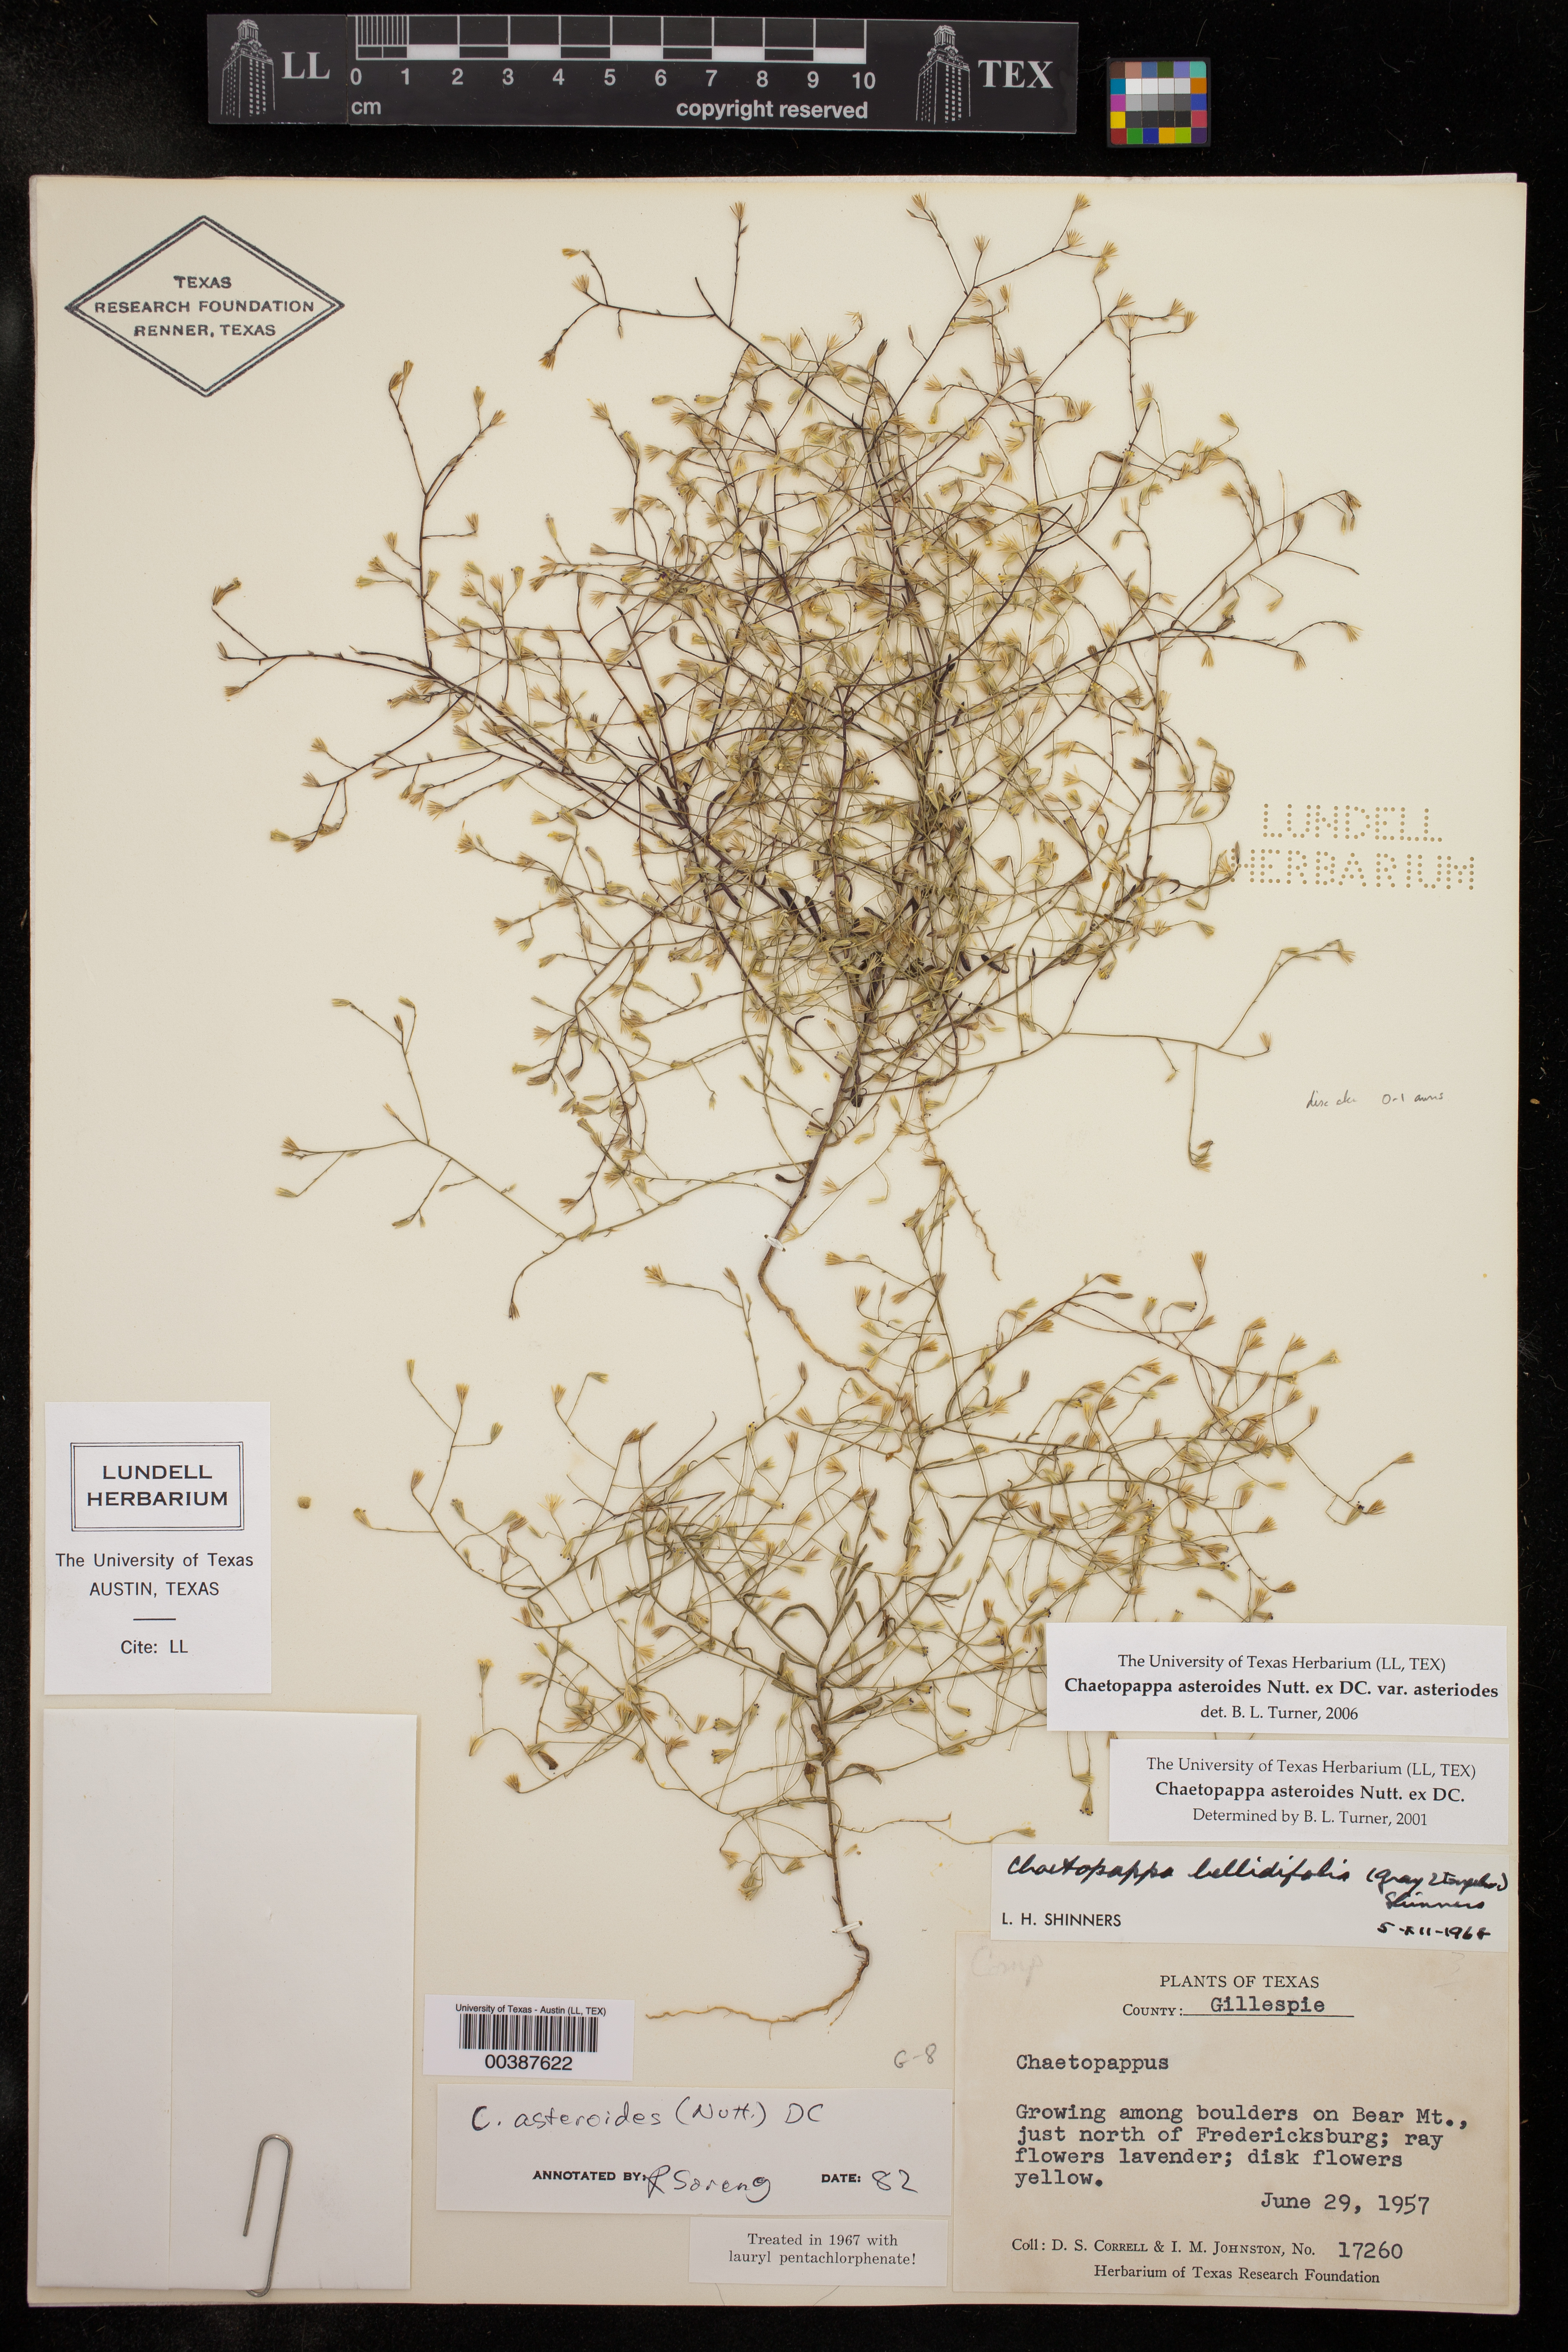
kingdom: Plantae
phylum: Tracheophyta
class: Magnoliopsida
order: Asterales
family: Asteraceae
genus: Chaetopappa
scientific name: Chaetopappa asteroides
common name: Tiny lazy daisy
